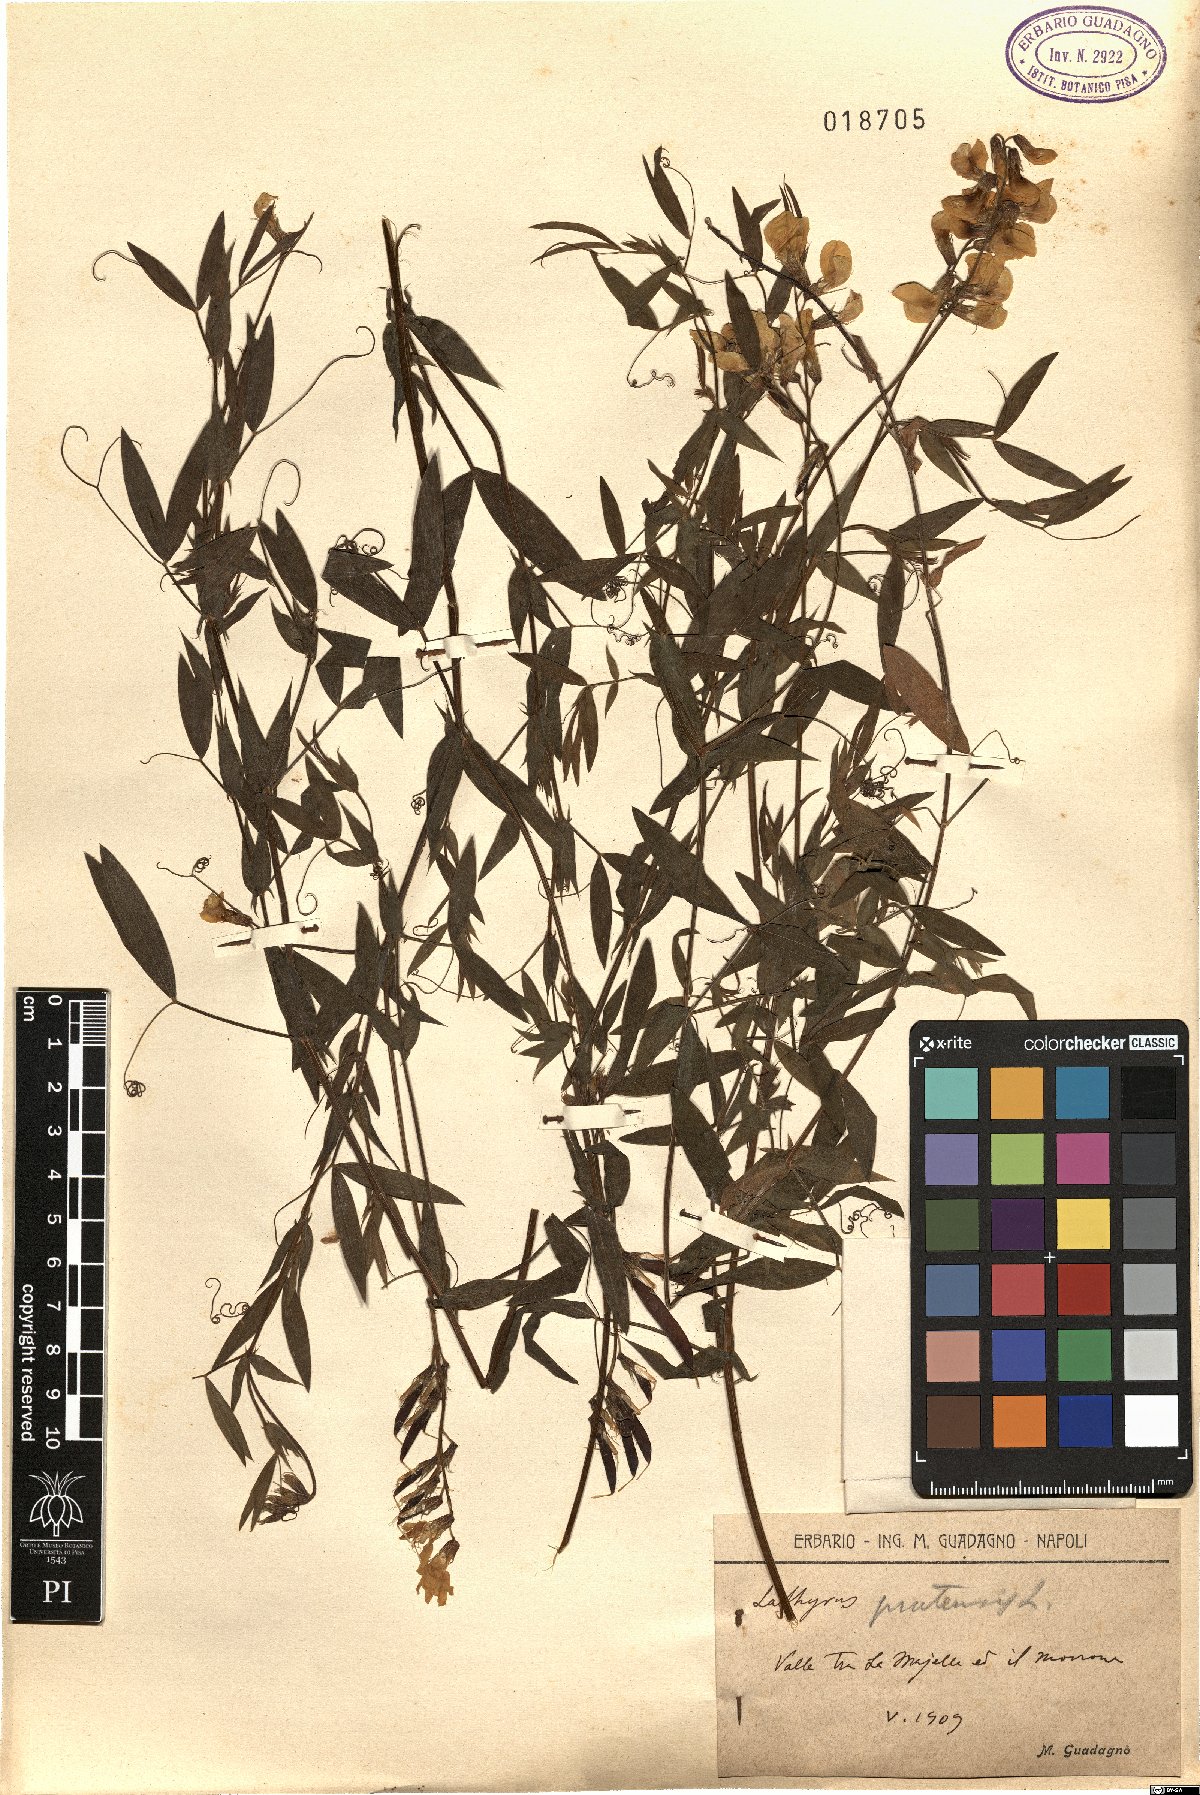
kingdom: Plantae
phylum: Tracheophyta
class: Magnoliopsida
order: Fabales
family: Fabaceae
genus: Lathyrus
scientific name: Lathyrus pratensis
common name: Meadow vetchling
